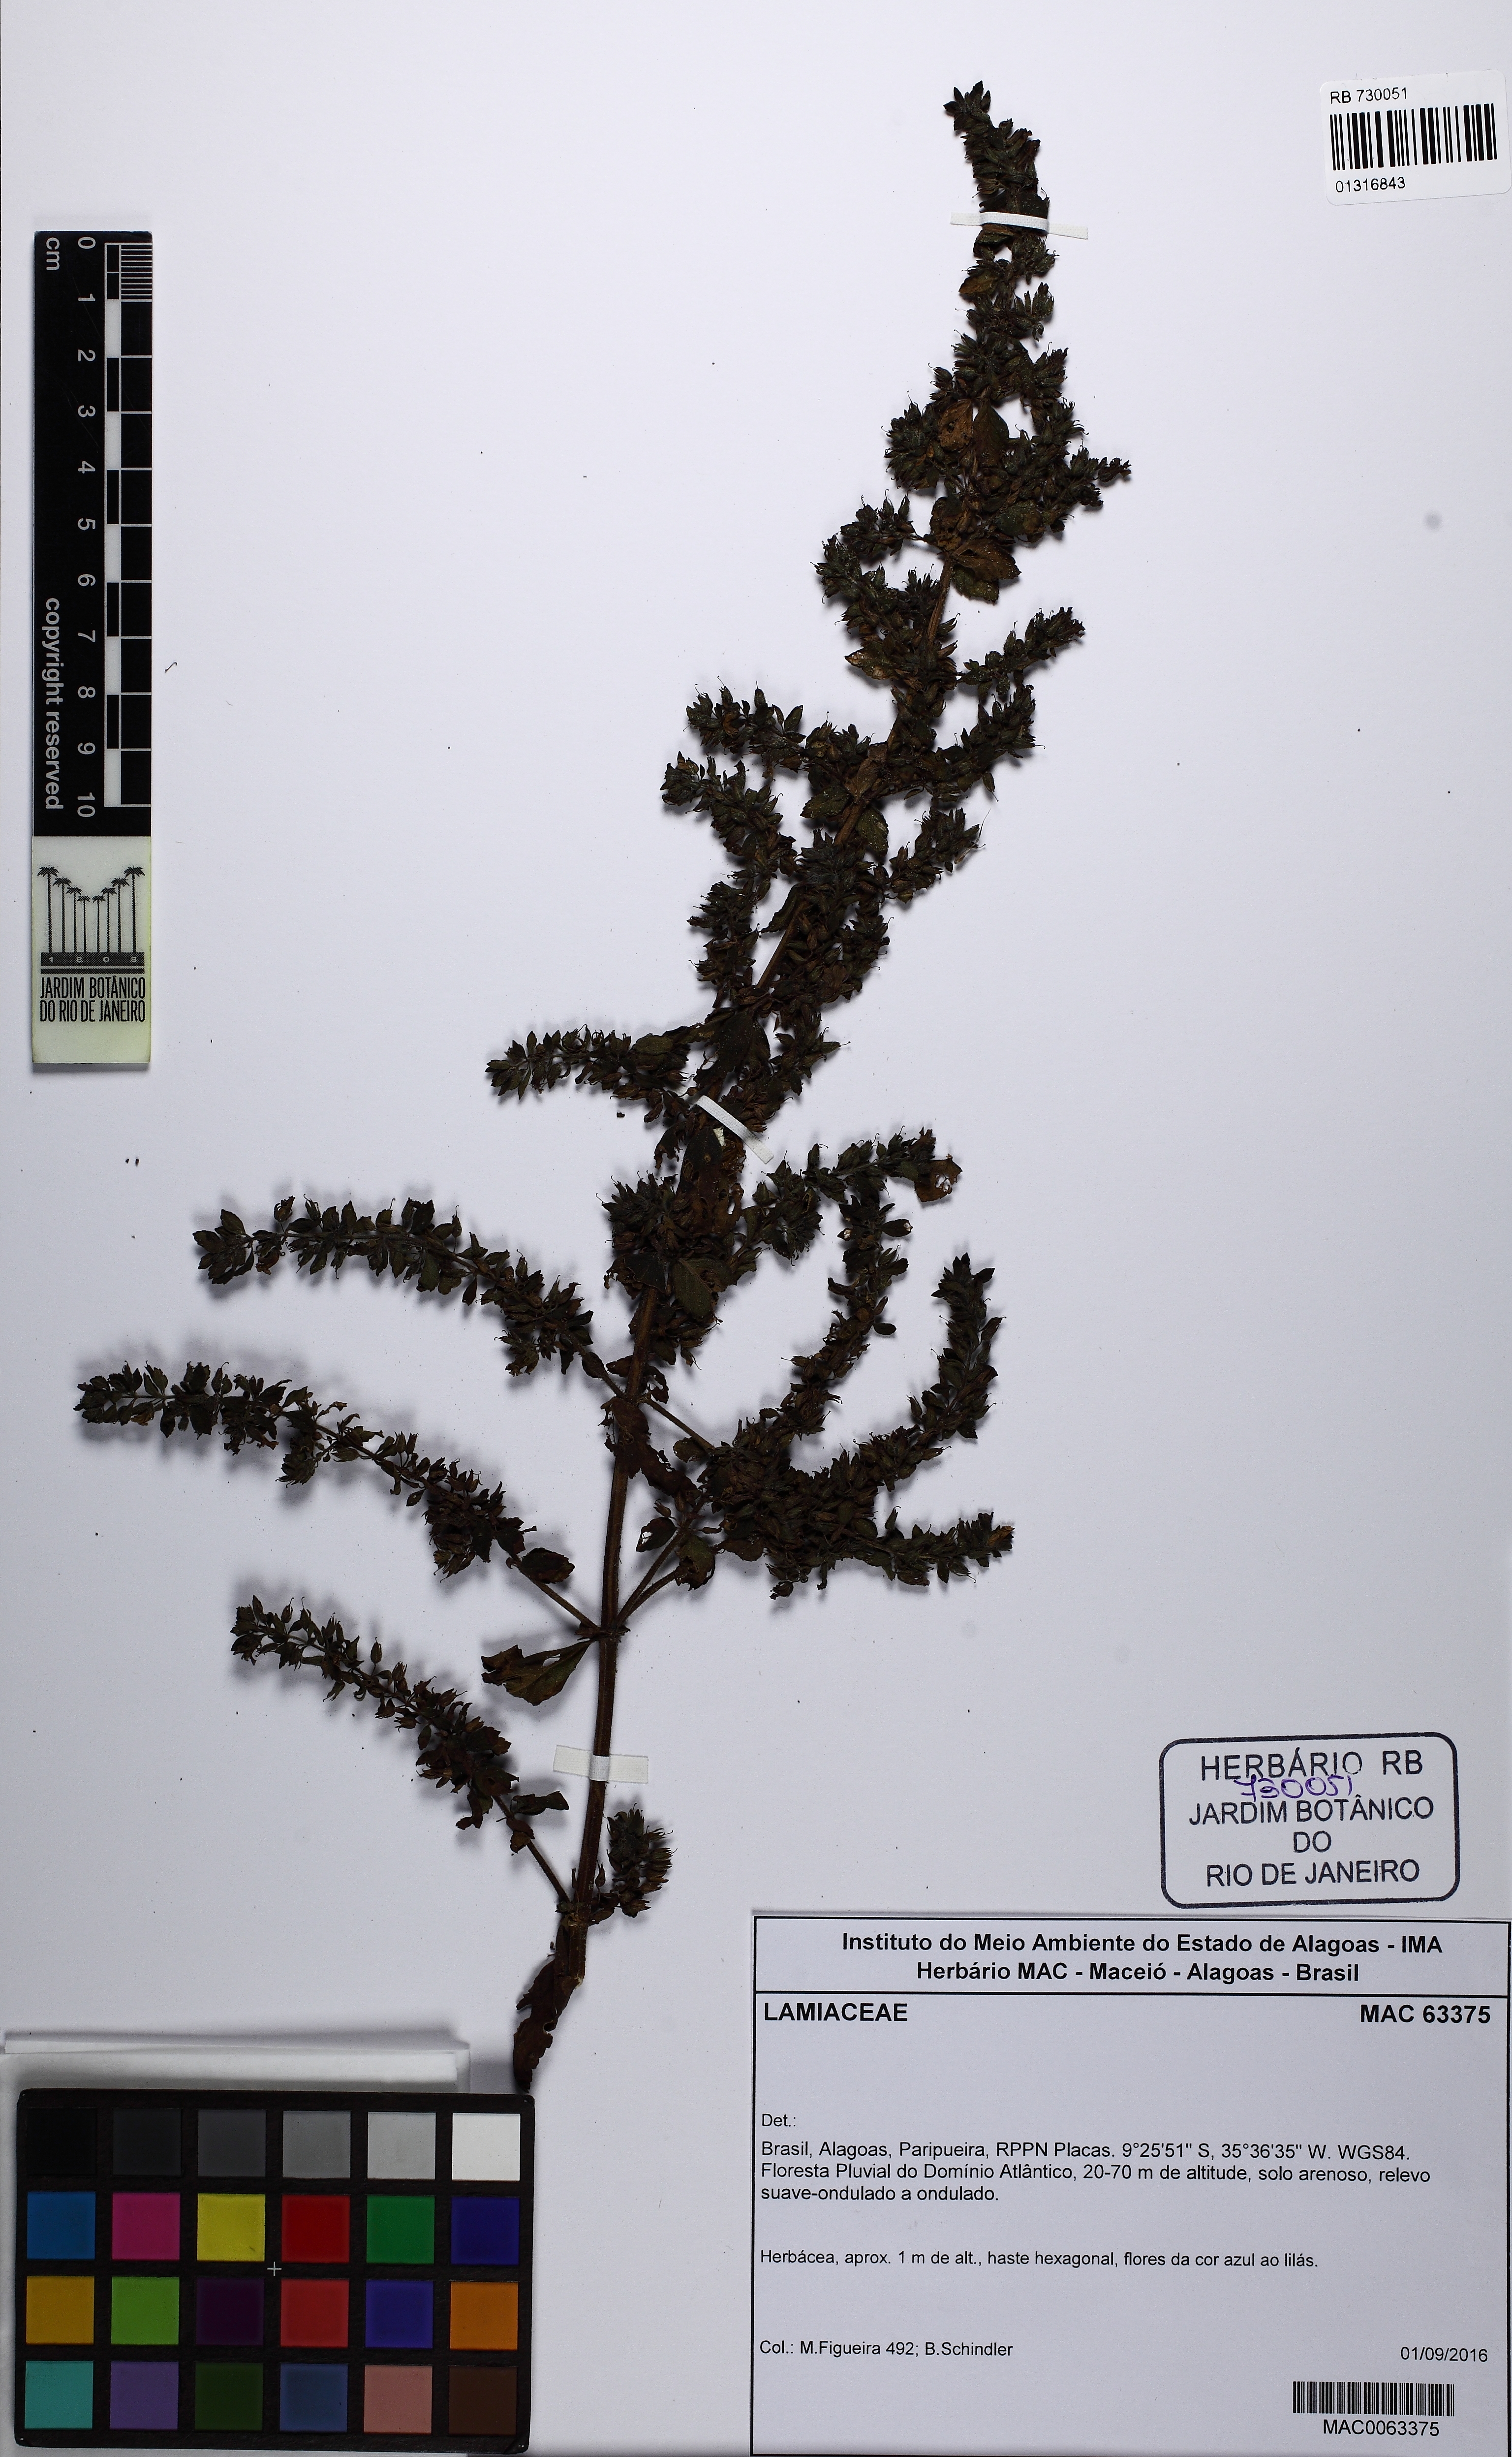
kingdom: Plantae
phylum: Tracheophyta
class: Magnoliopsida
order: Lamiales
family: Plantaginaceae
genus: Stemodia
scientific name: Stemodia foliosa
